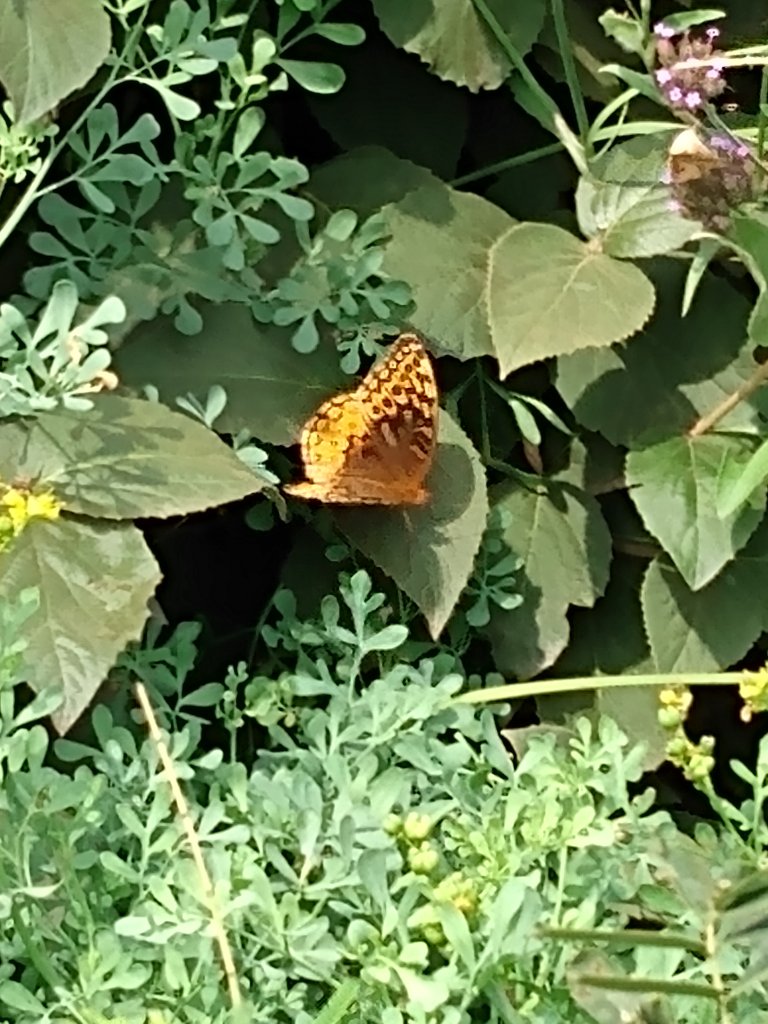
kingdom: Animalia
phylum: Arthropoda
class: Insecta
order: Lepidoptera
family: Nymphalidae
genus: Speyeria
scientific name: Speyeria cybele
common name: Great Spangled Fritillary
